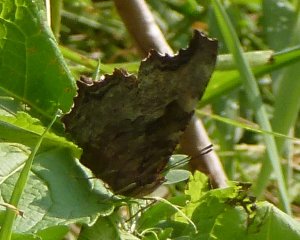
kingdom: Animalia
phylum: Arthropoda
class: Insecta
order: Lepidoptera
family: Nymphalidae
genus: Polygonia
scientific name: Polygonia vaualbum
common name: Compton Tortoiseshell
